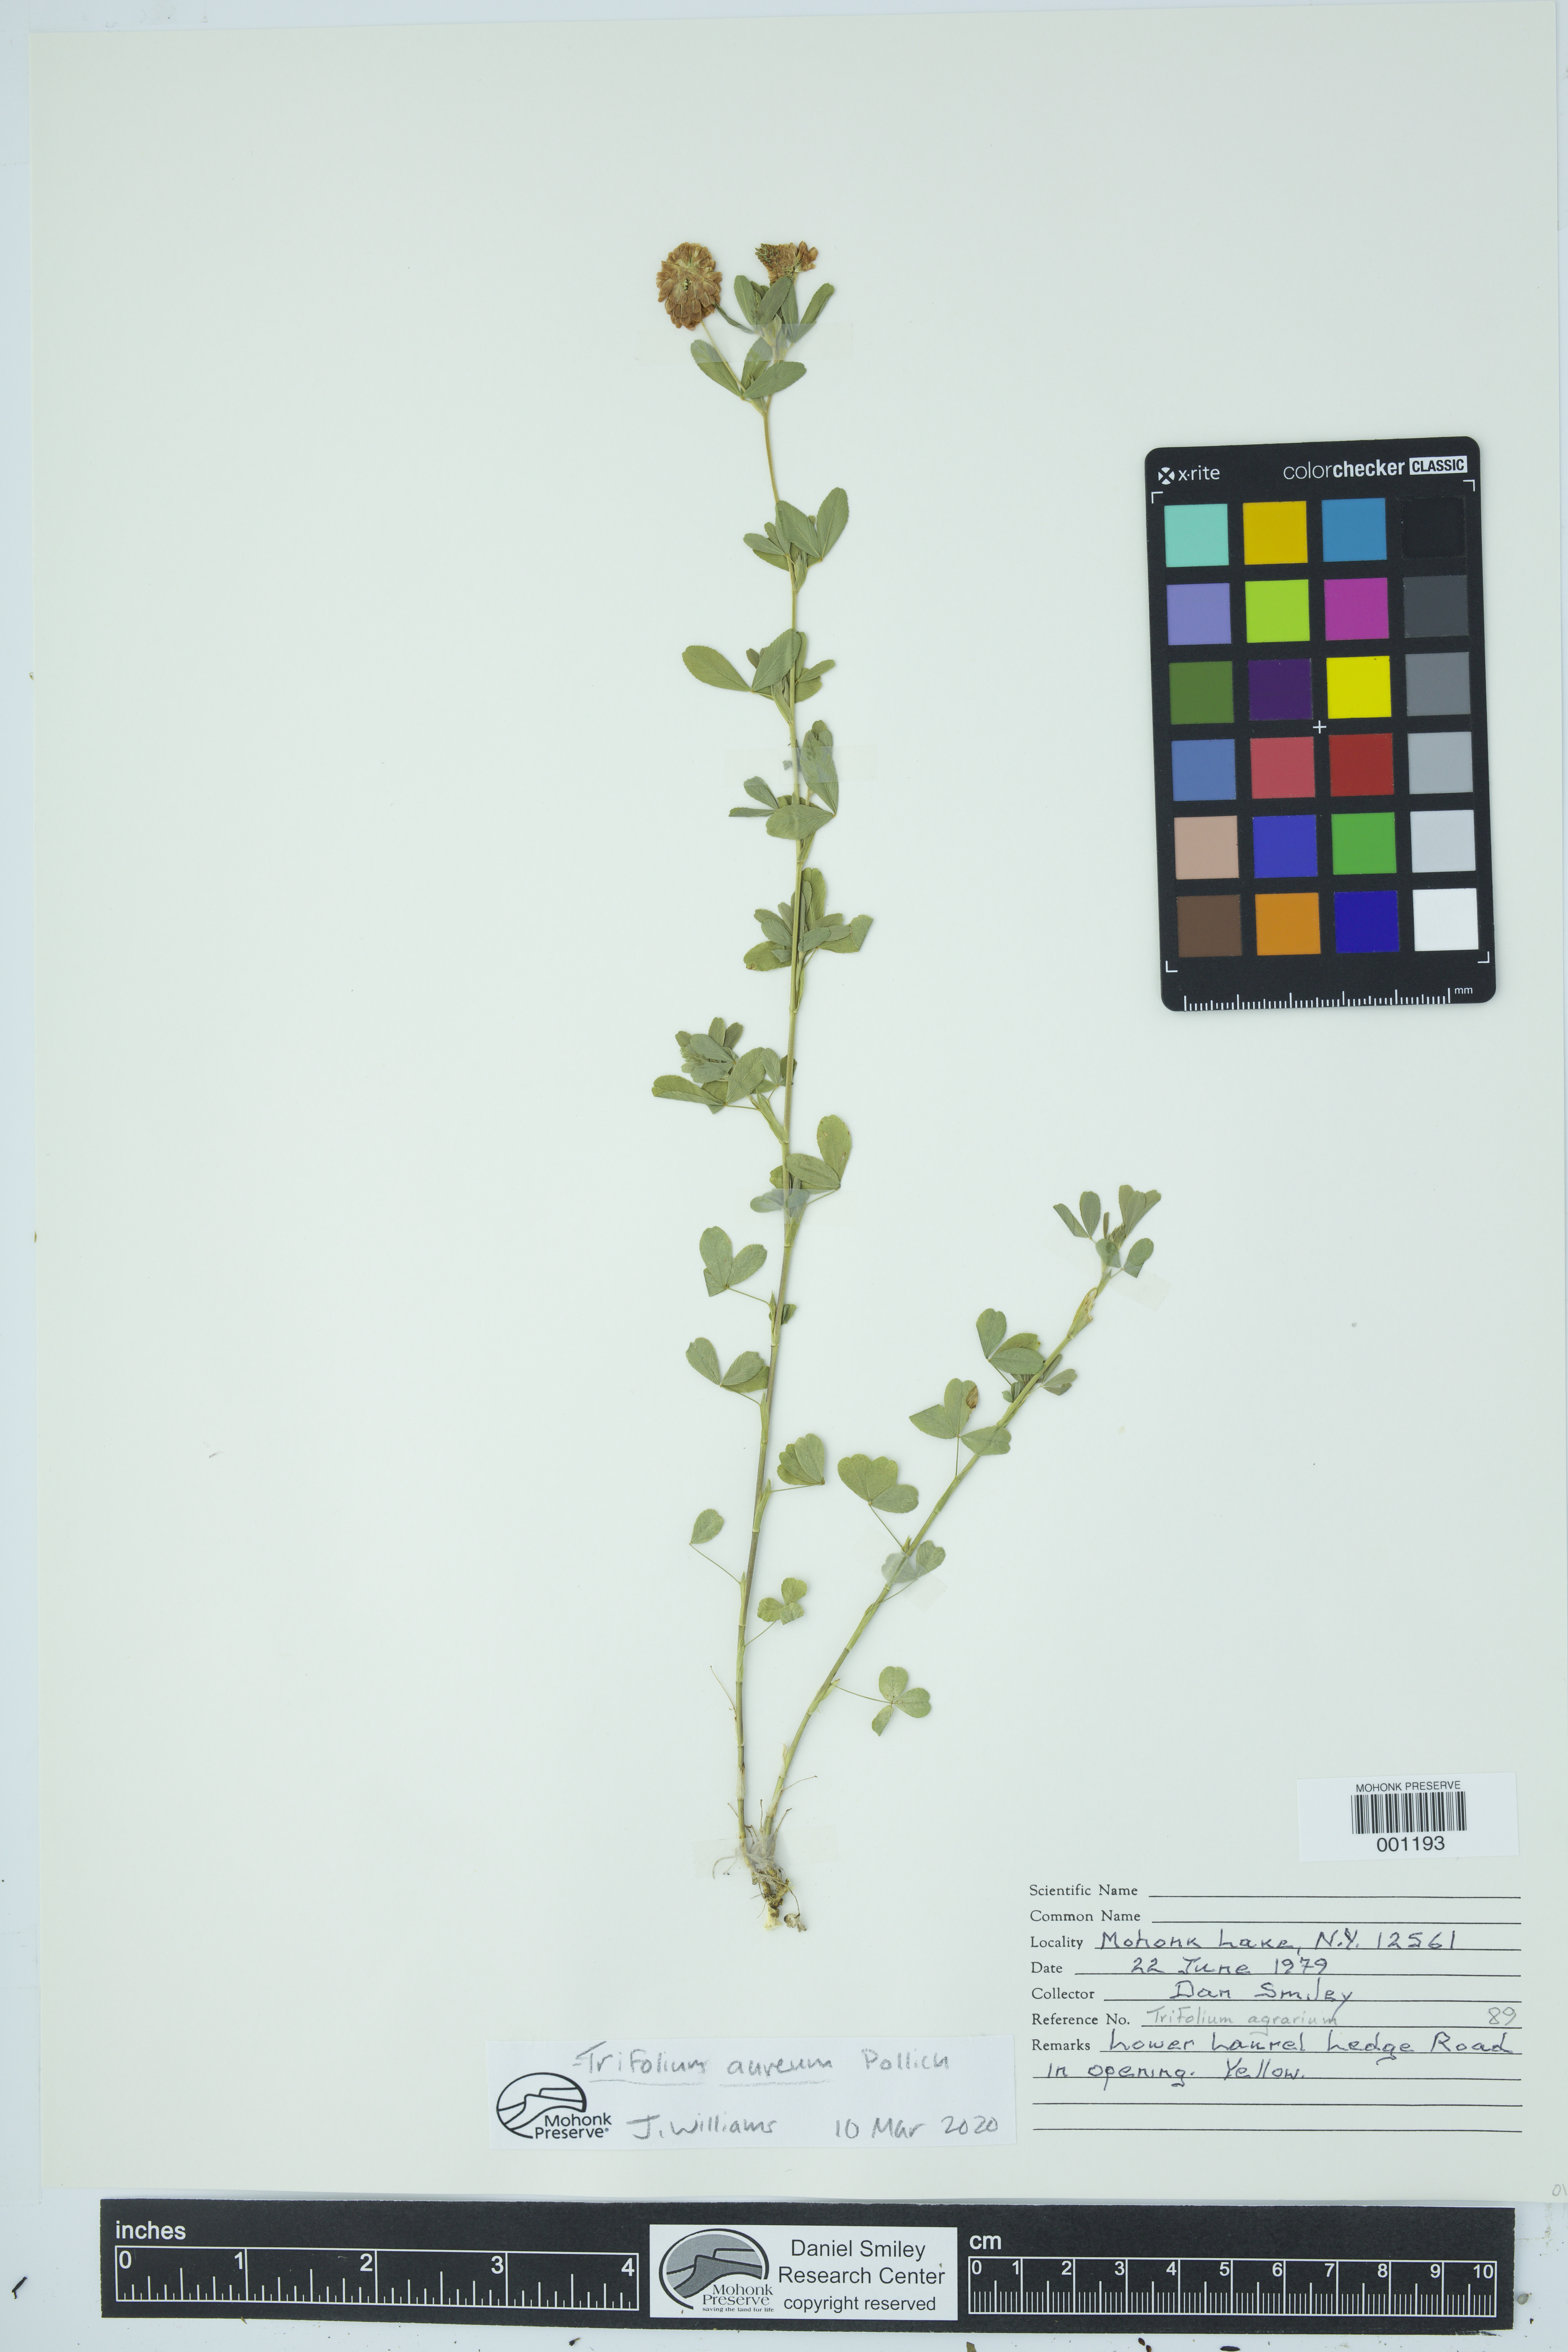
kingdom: Plantae
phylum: Tracheophyta
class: Magnoliopsida
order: Fabales
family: Fabaceae
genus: Trifolium
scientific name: Trifolium aureum
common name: Golden clover
